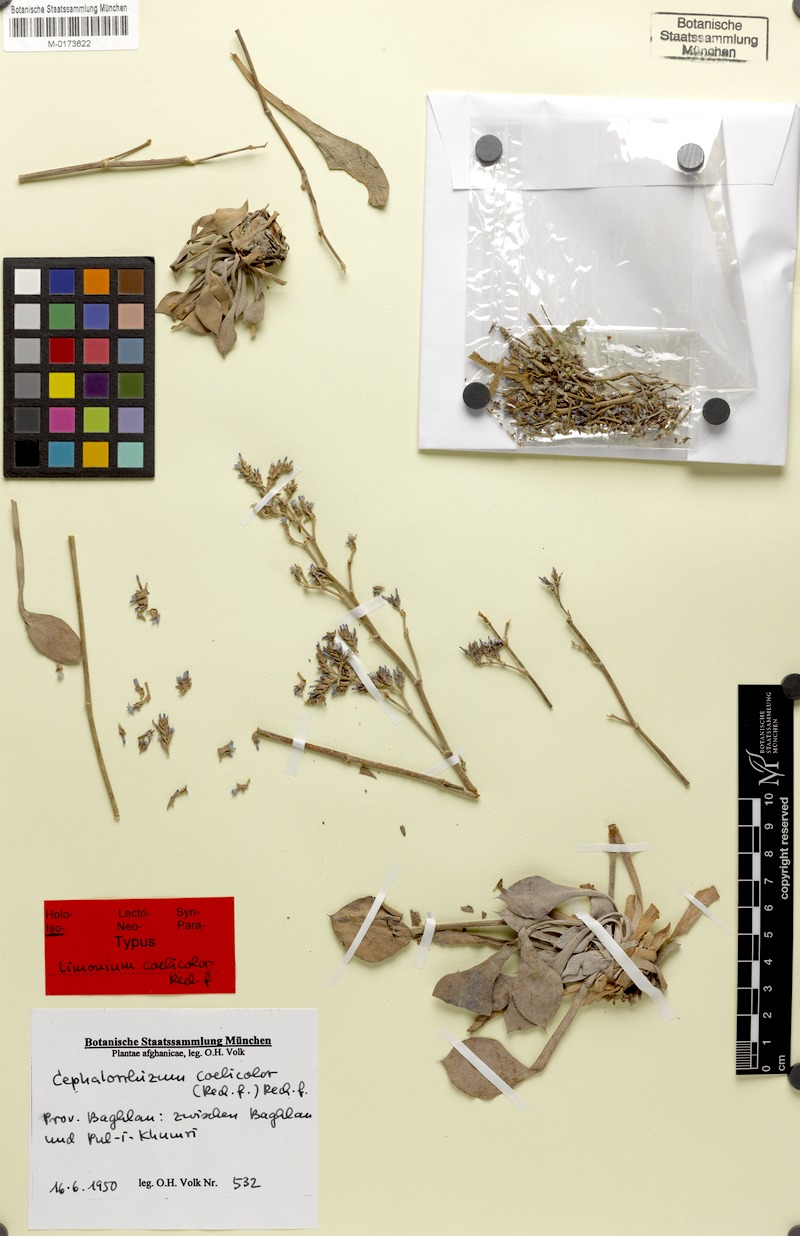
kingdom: Plantae
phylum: Tracheophyta
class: Magnoliopsida
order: Caryophyllales
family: Plumbaginaceae
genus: Cephalorhizum
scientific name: Cephalorhizum coelicolor
